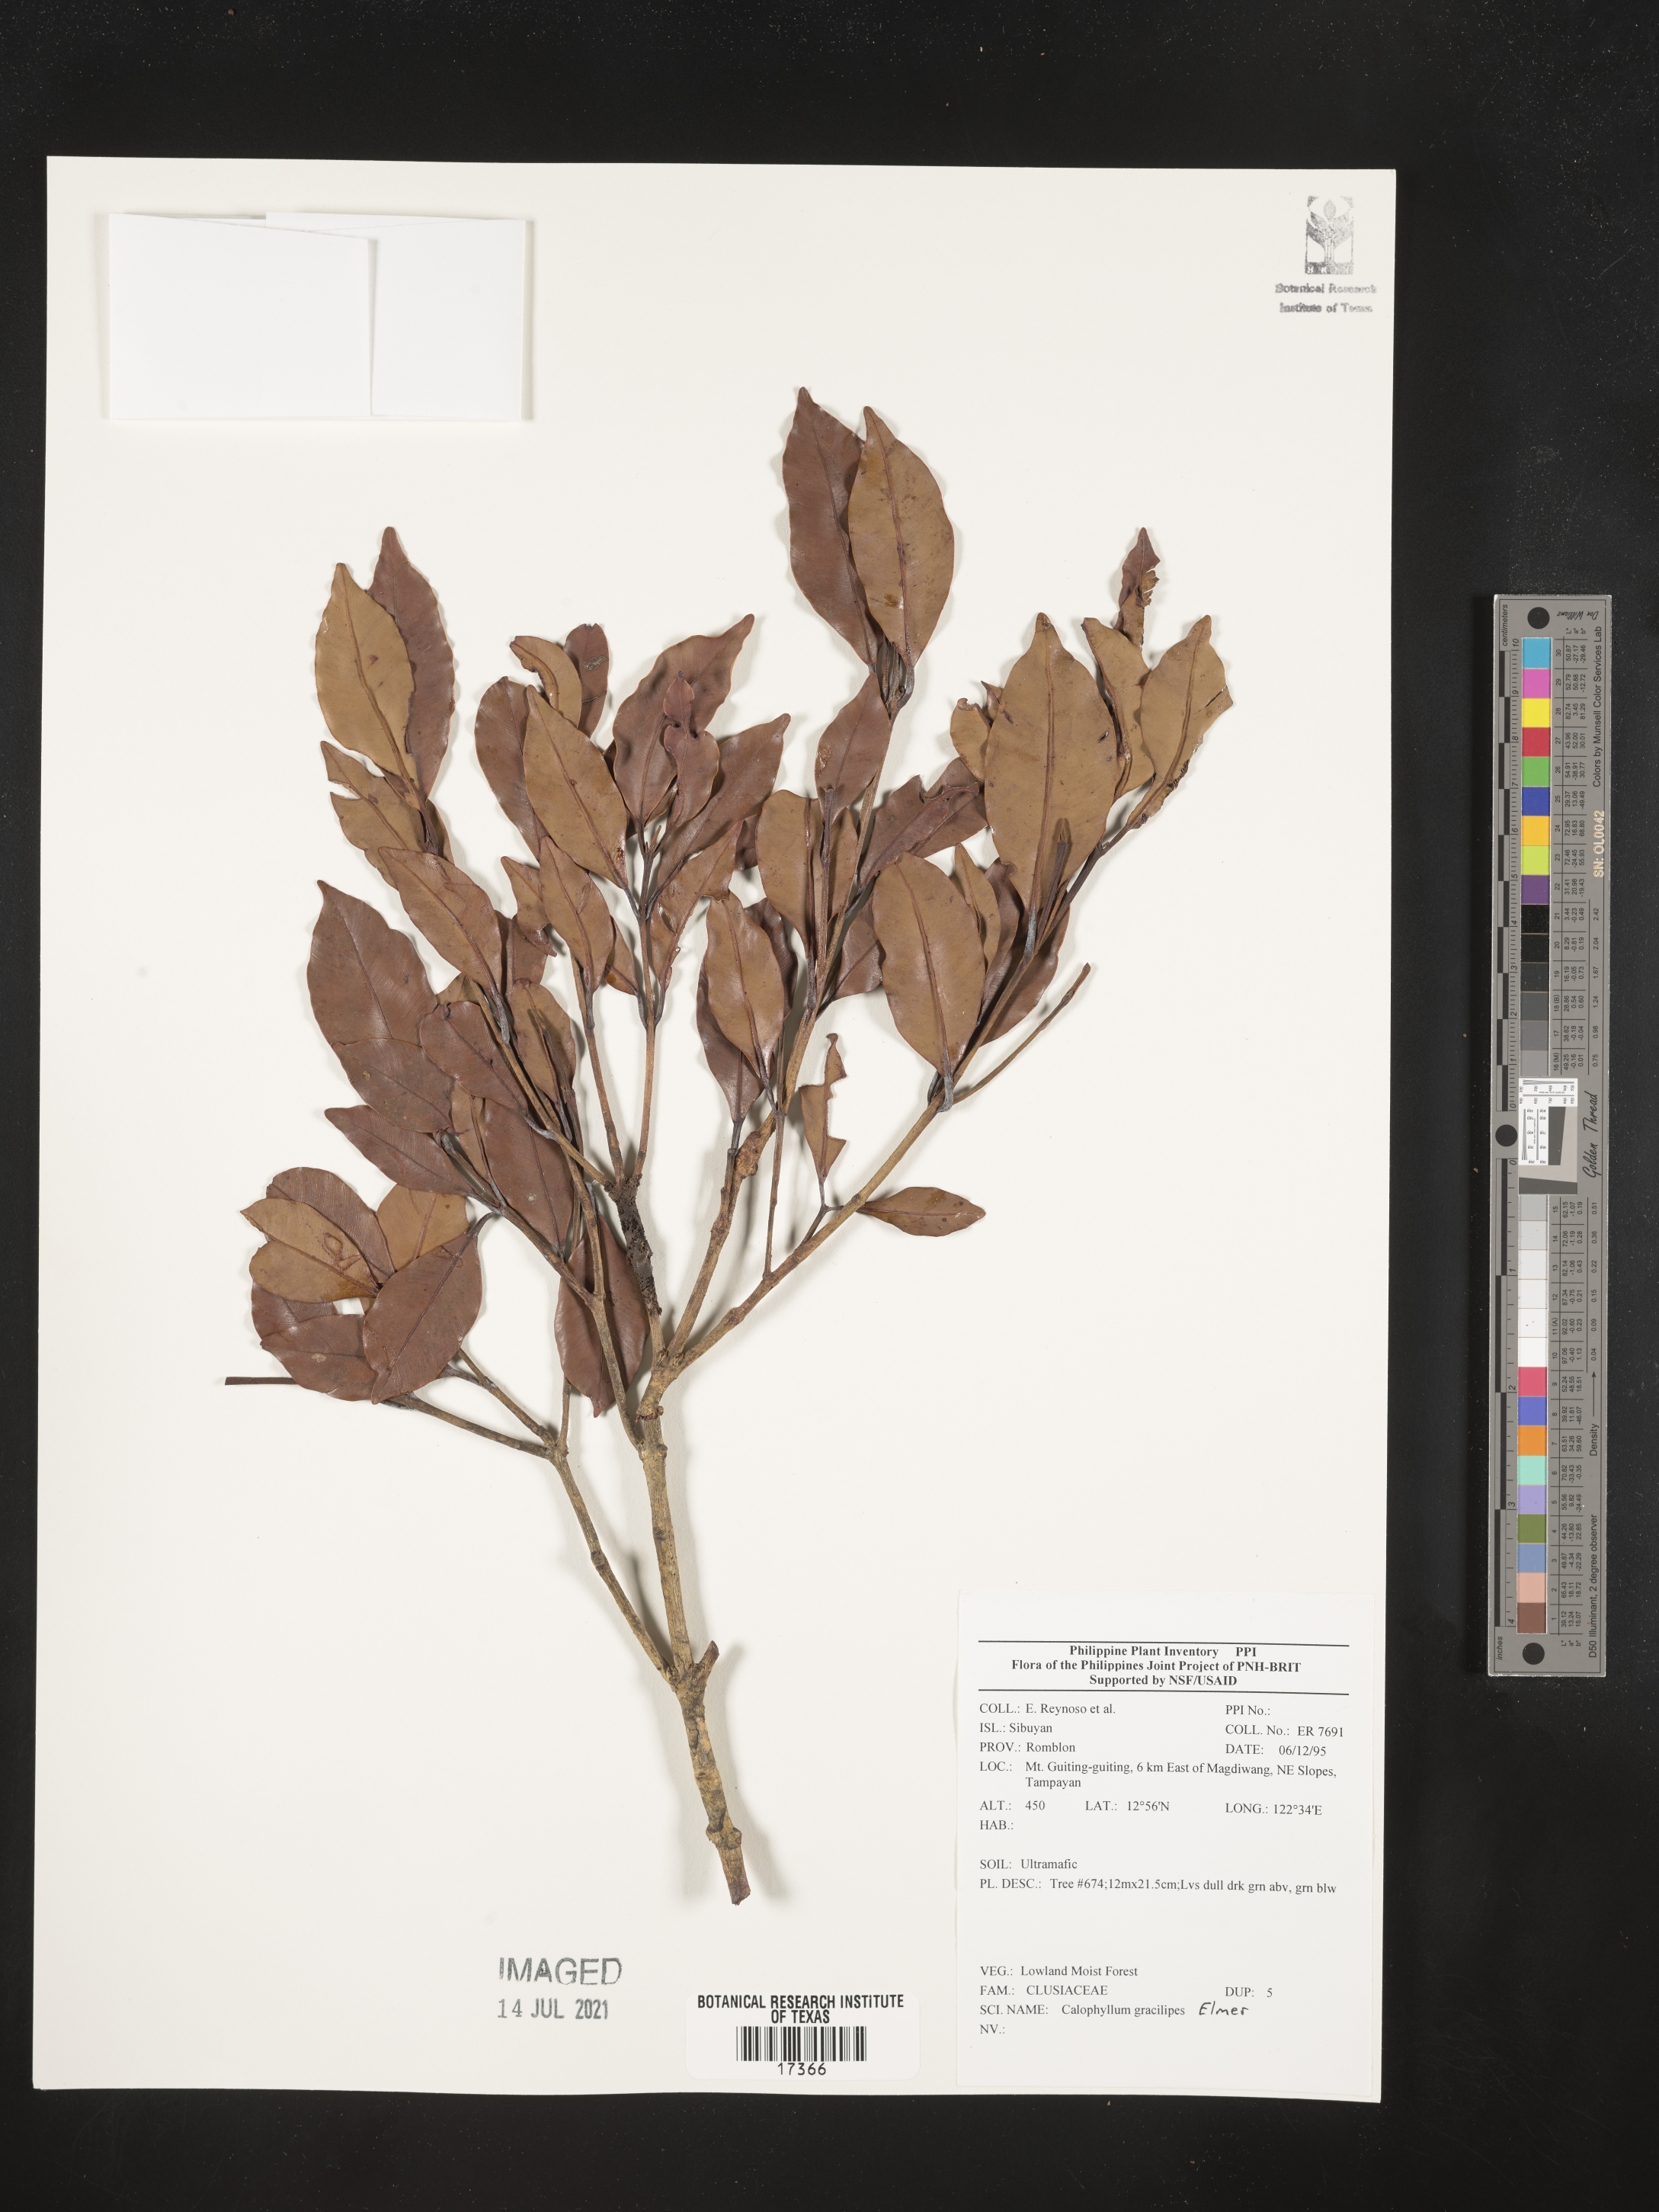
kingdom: Plantae
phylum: Tracheophyta
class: Magnoliopsida
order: Malpighiales
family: Calophyllaceae
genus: Calophyllum
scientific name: Calophyllum gracilipes
